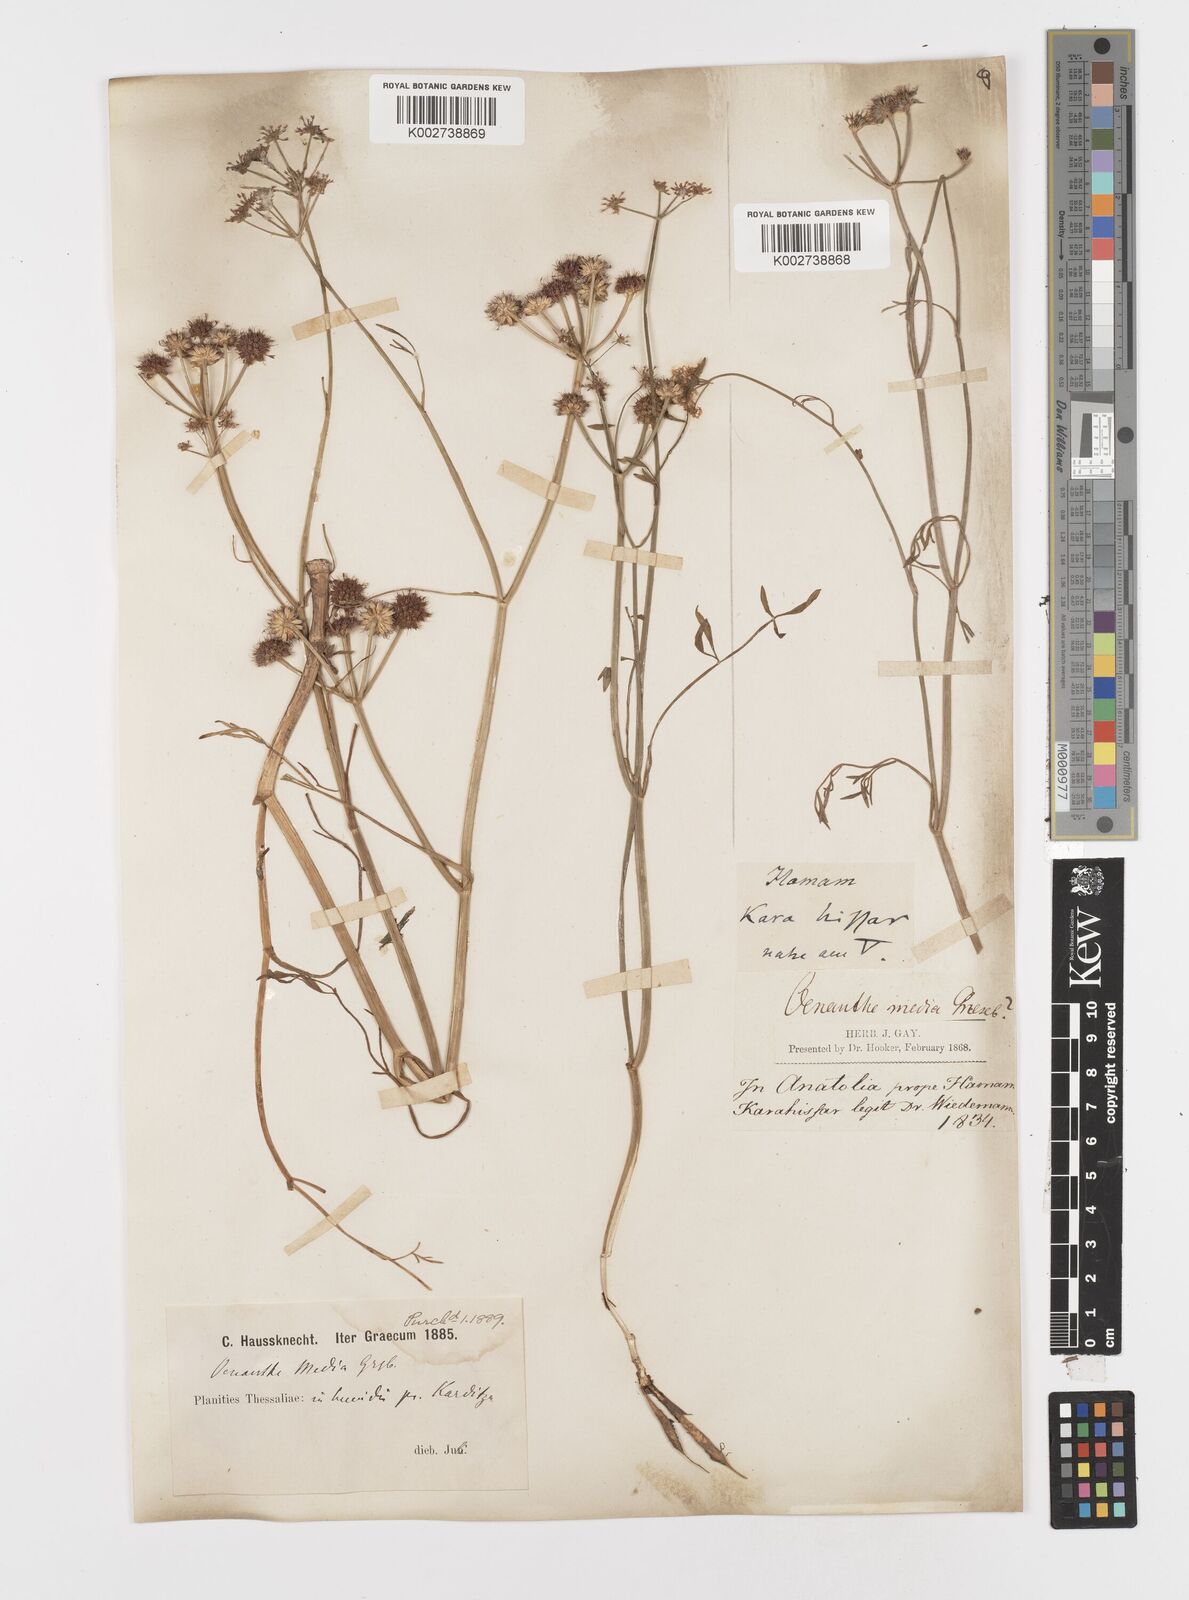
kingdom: Plantae
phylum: Tracheophyta
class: Magnoliopsida
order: Apiales
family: Apiaceae
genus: Oenanthe
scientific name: Oenanthe silaifolia
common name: Narrow-leaved water-dropwort
